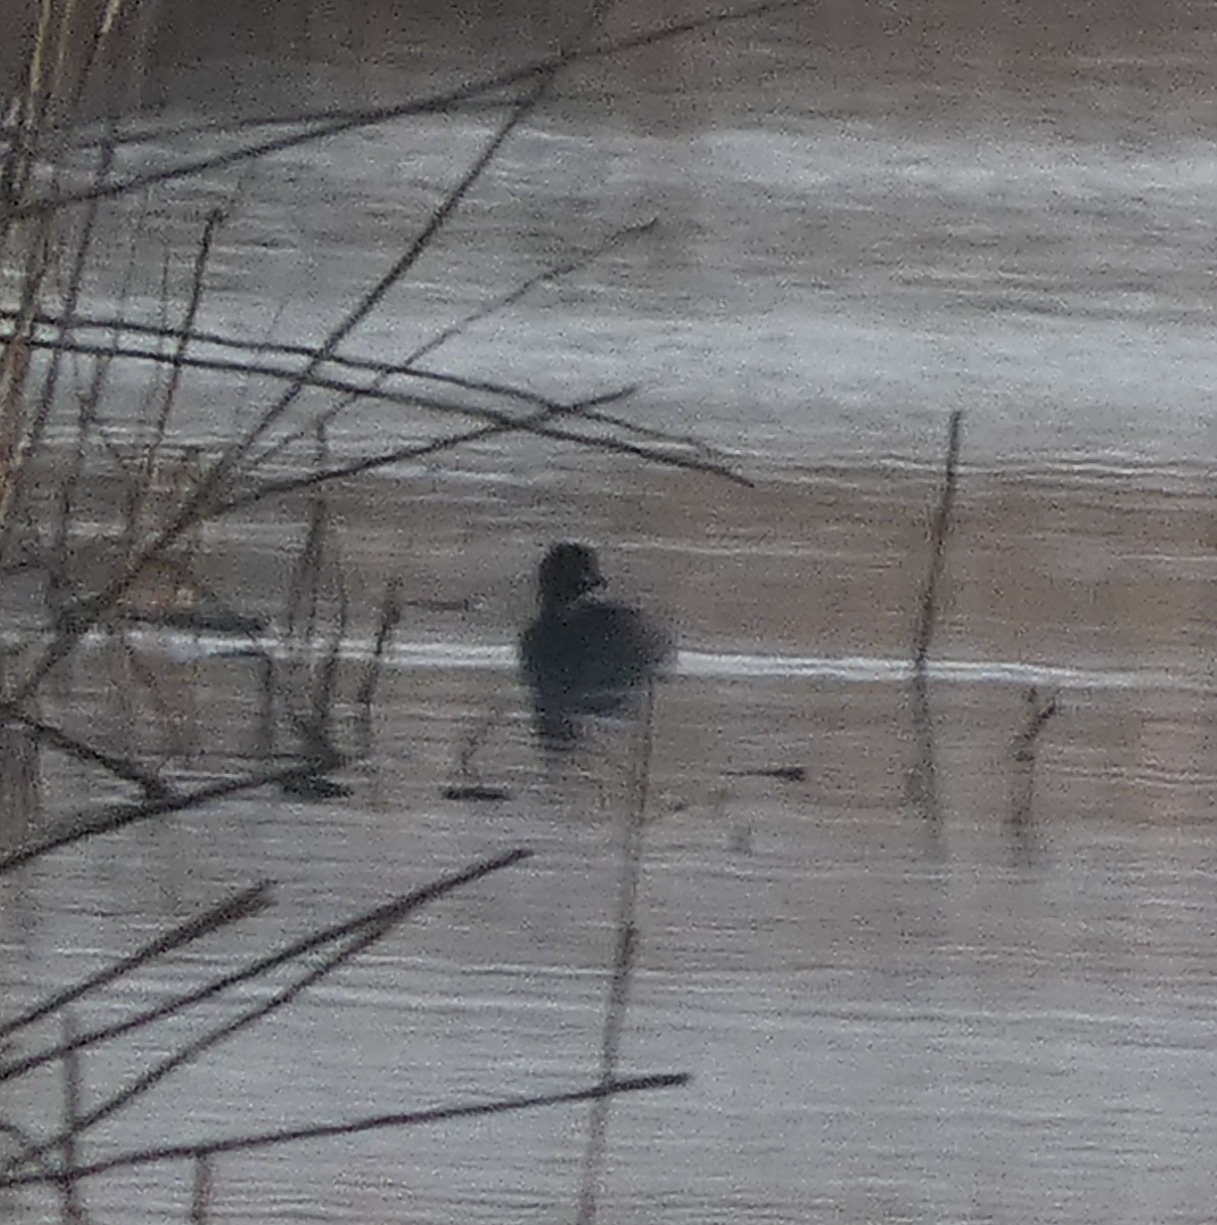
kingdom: Animalia
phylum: Chordata
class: Aves
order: Podicipediformes
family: Podicipedidae
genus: Tachybaptus
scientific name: Tachybaptus ruficollis
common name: Lille lappedykker
